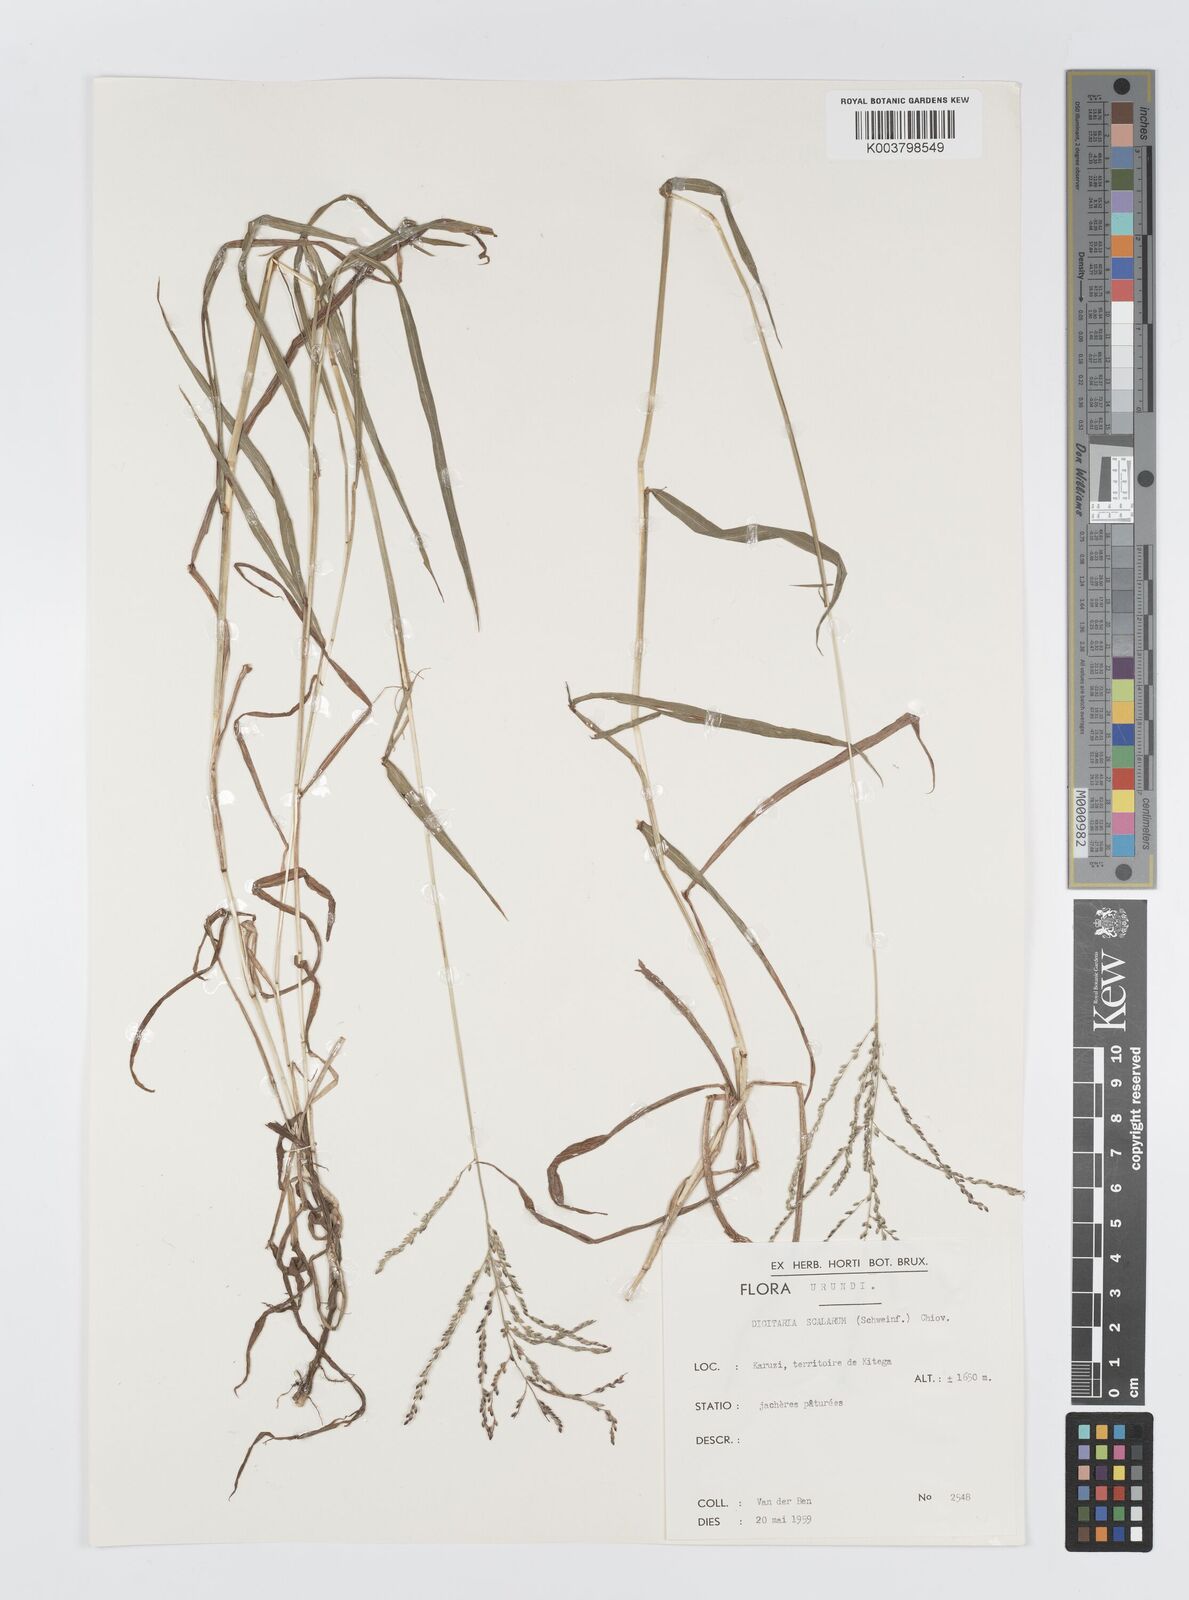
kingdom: Plantae
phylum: Tracheophyta
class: Liliopsida
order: Poales
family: Poaceae
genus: Digitaria
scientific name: Digitaria abyssinica
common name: African couchgrass
